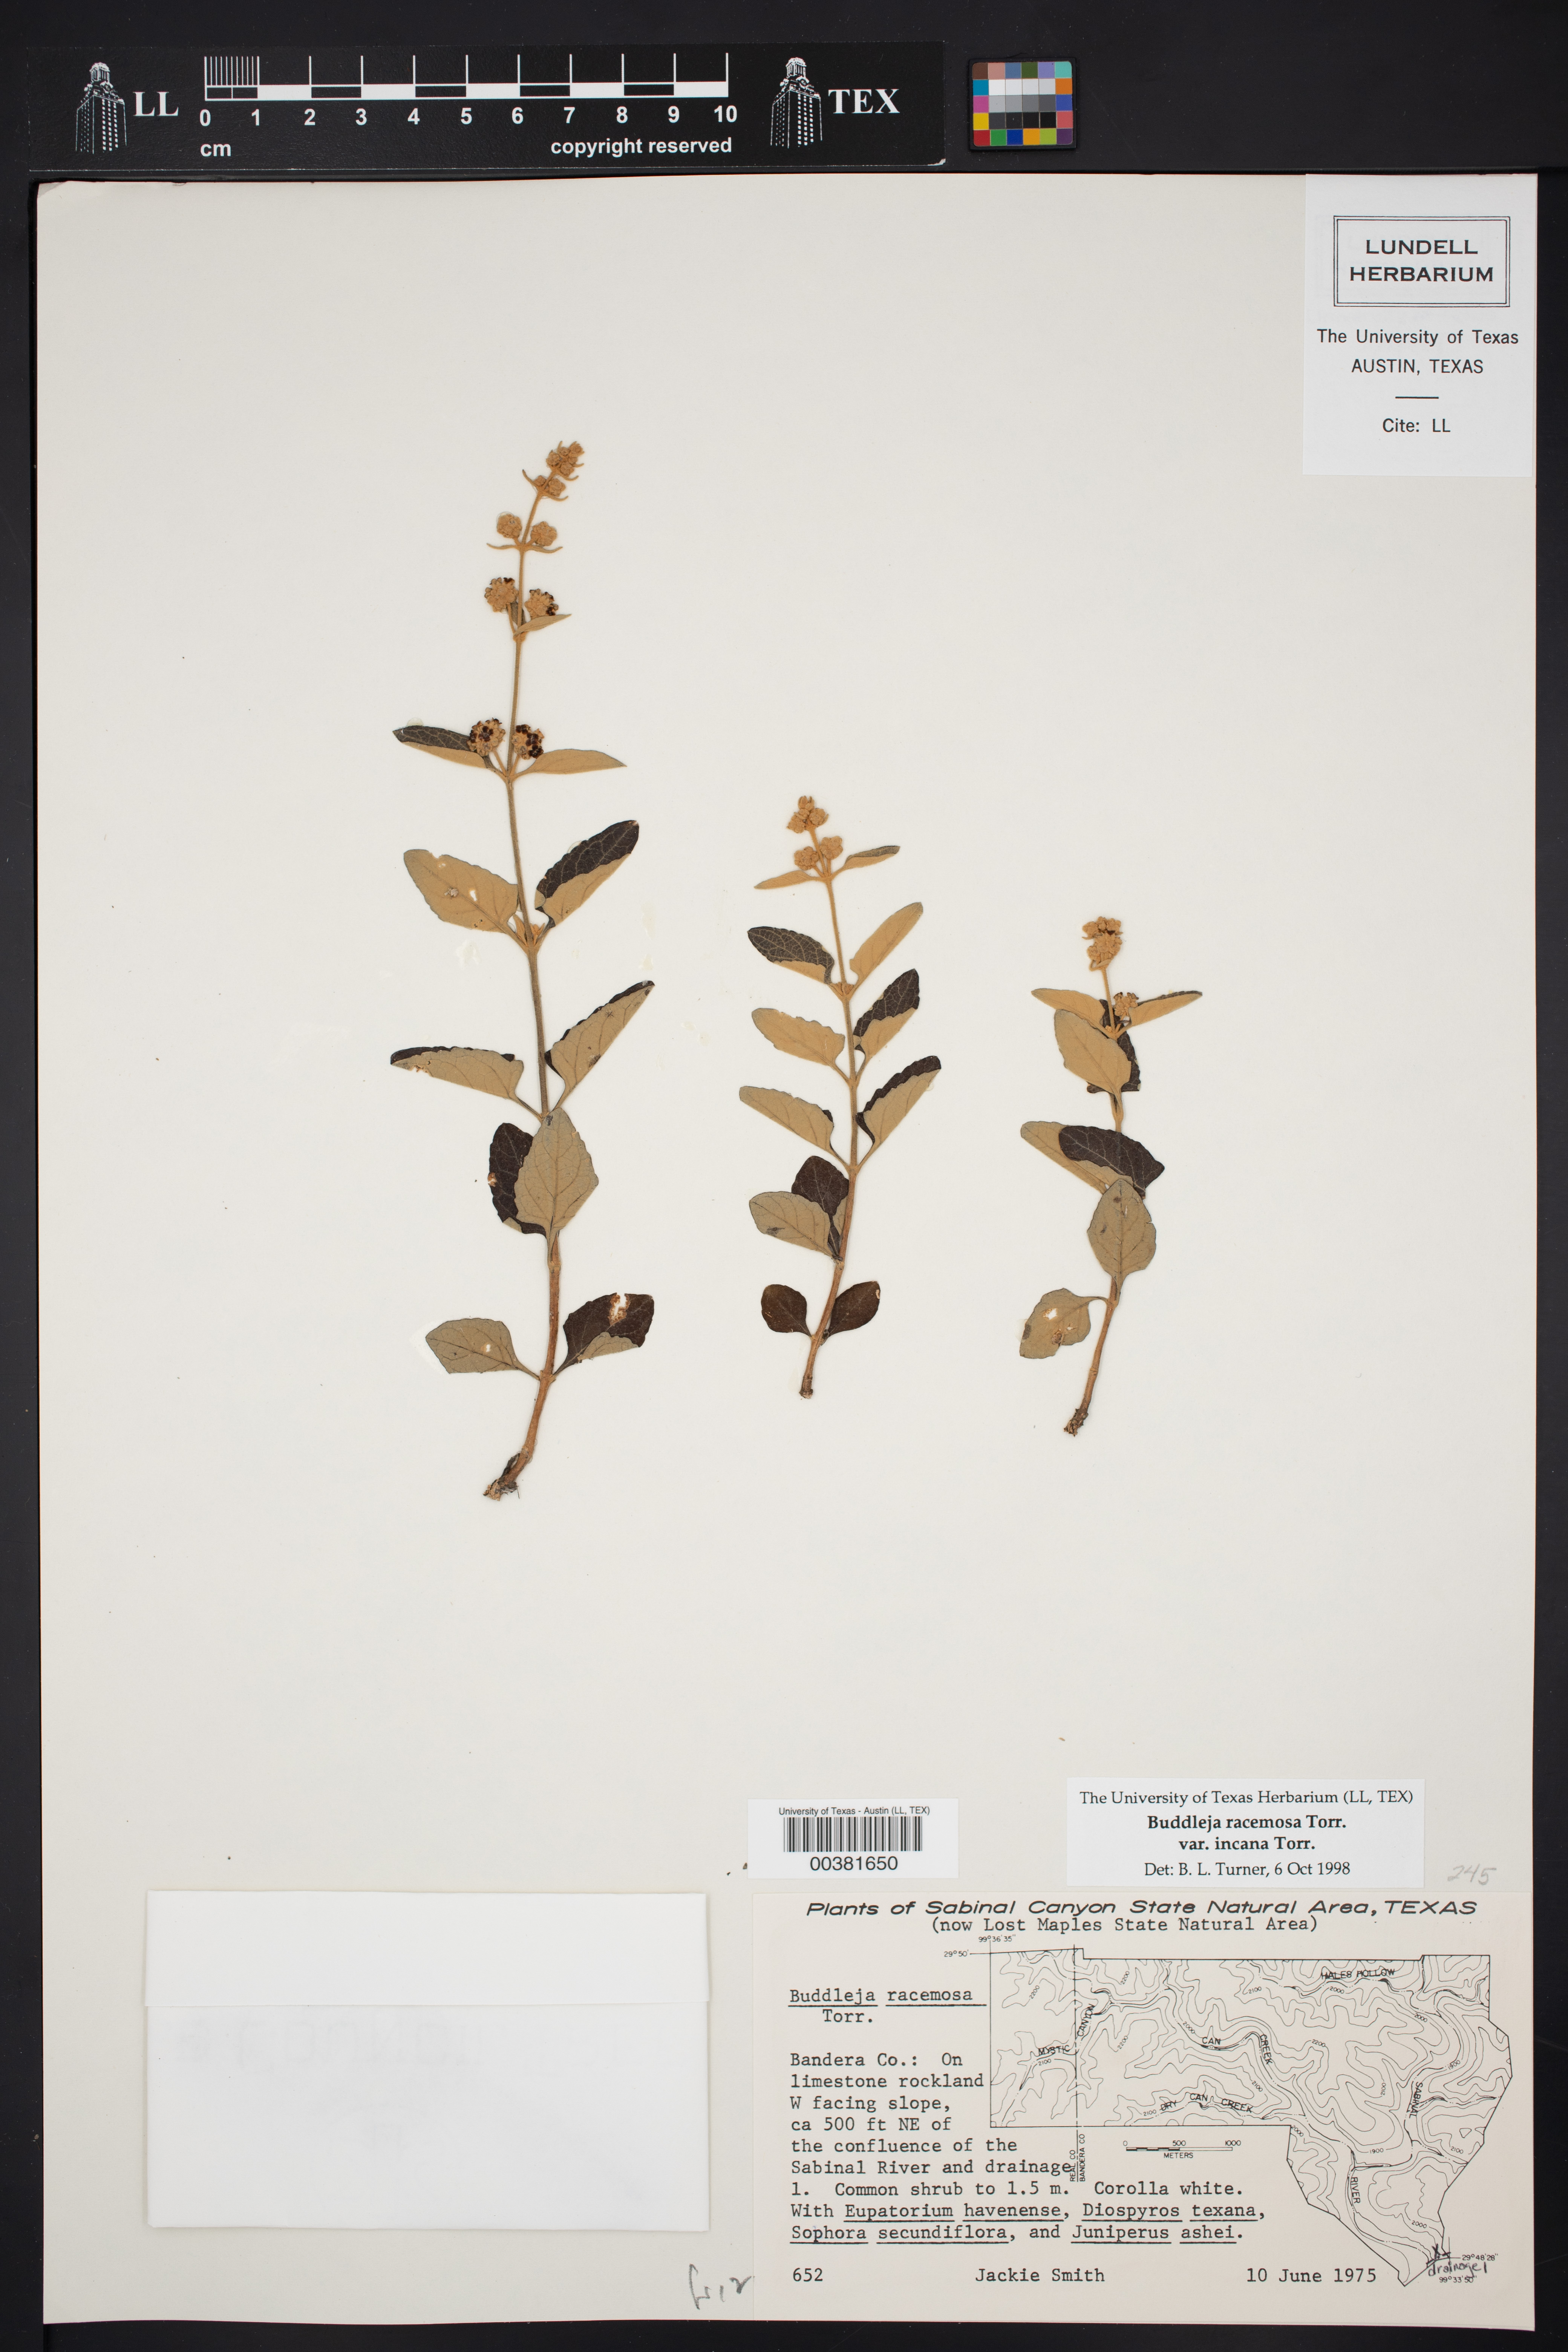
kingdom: Plantae
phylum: Tracheophyta
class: Magnoliopsida
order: Lamiales
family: Scrophulariaceae
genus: Buddleja
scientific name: Buddleja racemosa
